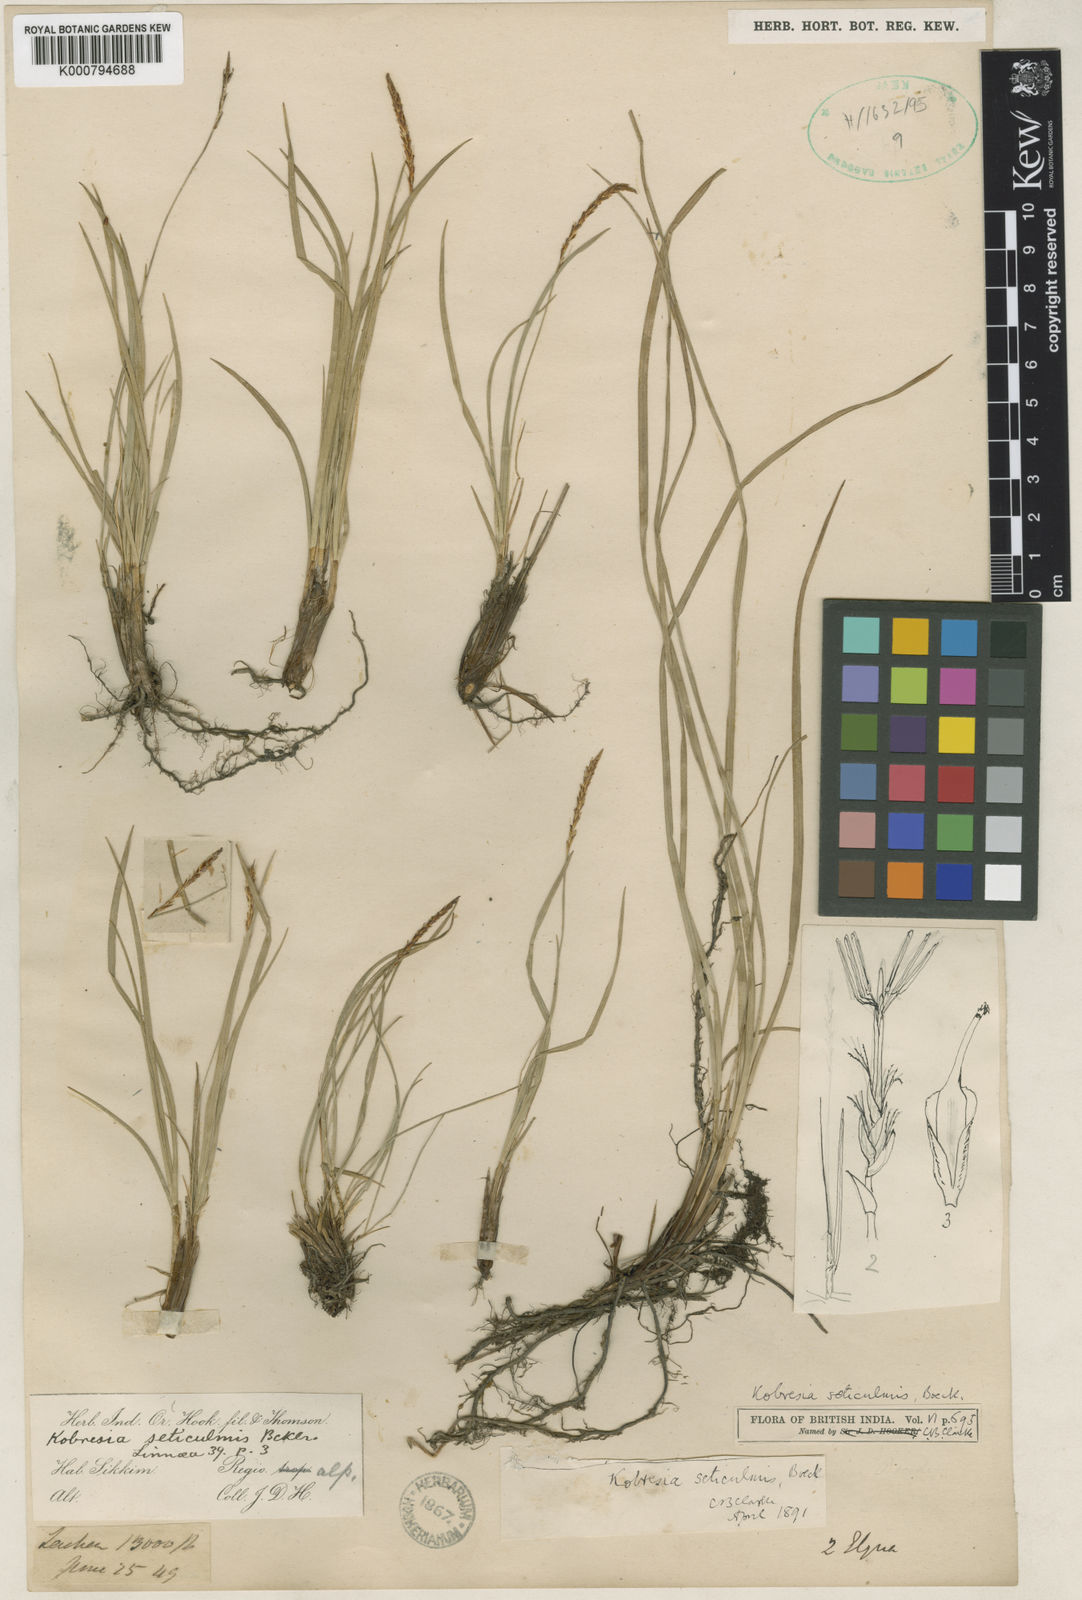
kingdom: Plantae
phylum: Tracheophyta
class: Liliopsida
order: Poales
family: Cyperaceae
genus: Carex
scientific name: Carex esenbeckii
